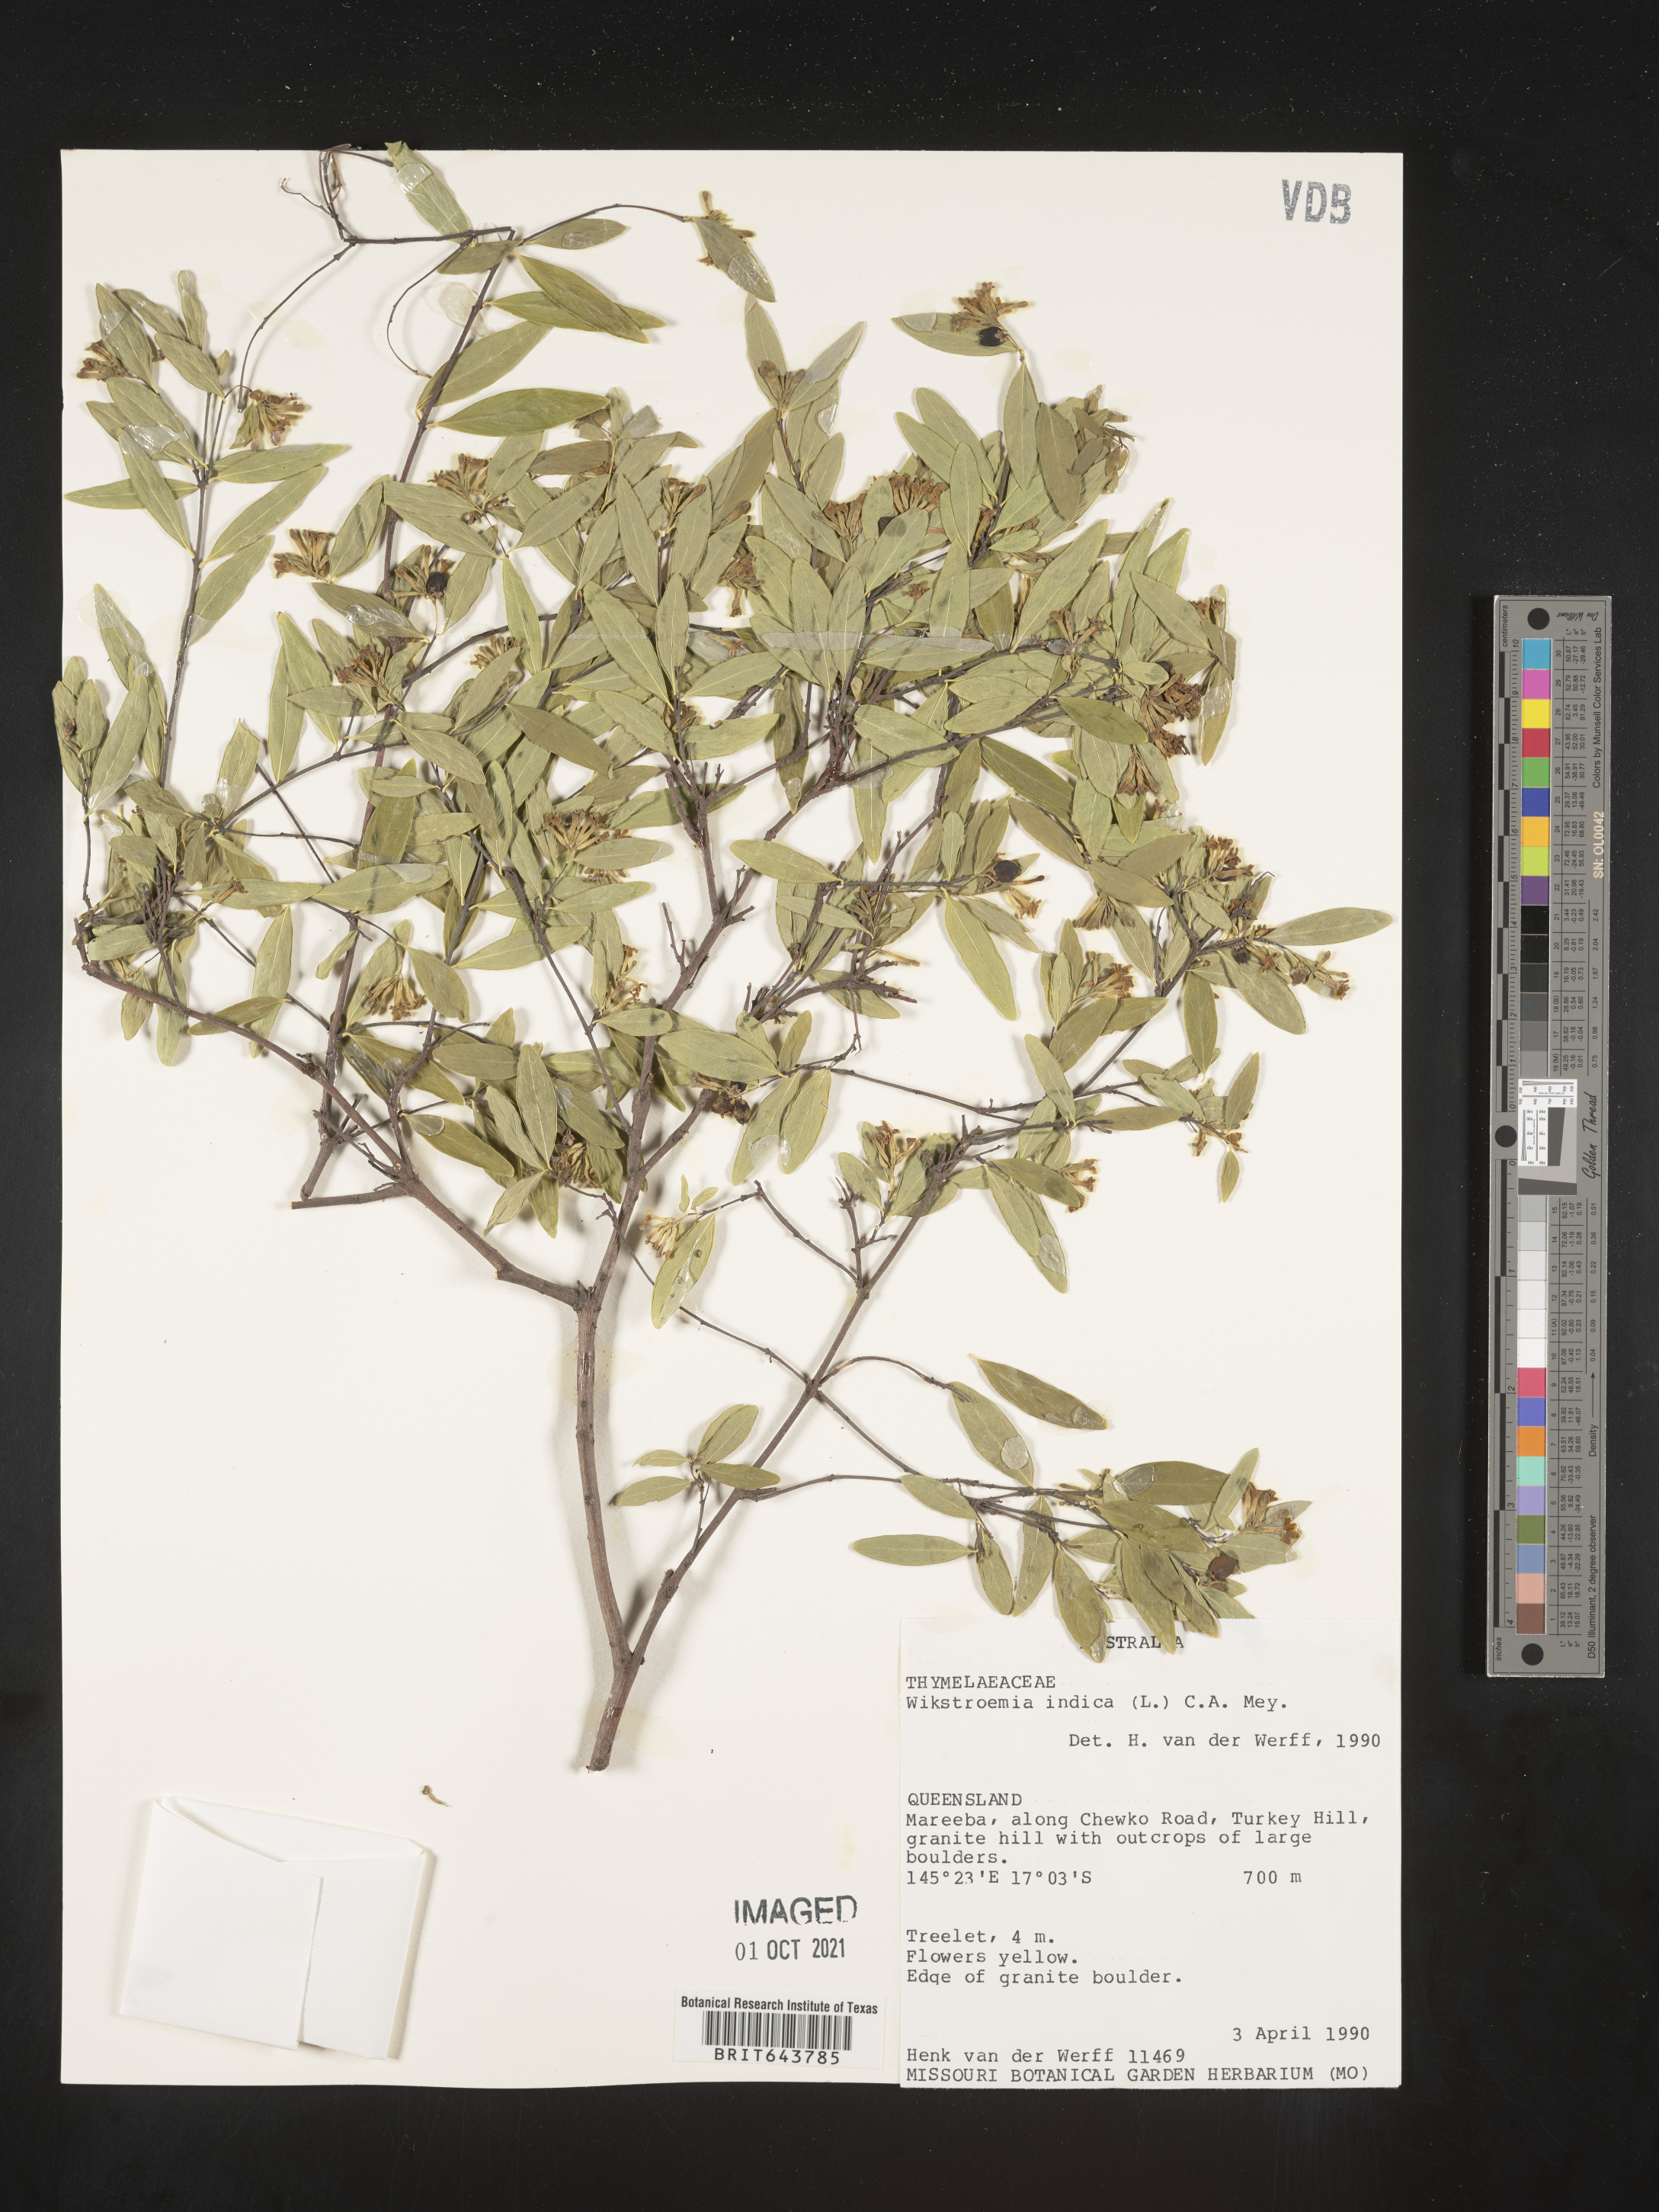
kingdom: Plantae
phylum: Tracheophyta
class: Magnoliopsida
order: Malvales
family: Thymelaeaceae
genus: Wikstroemia
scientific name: Wikstroemia
